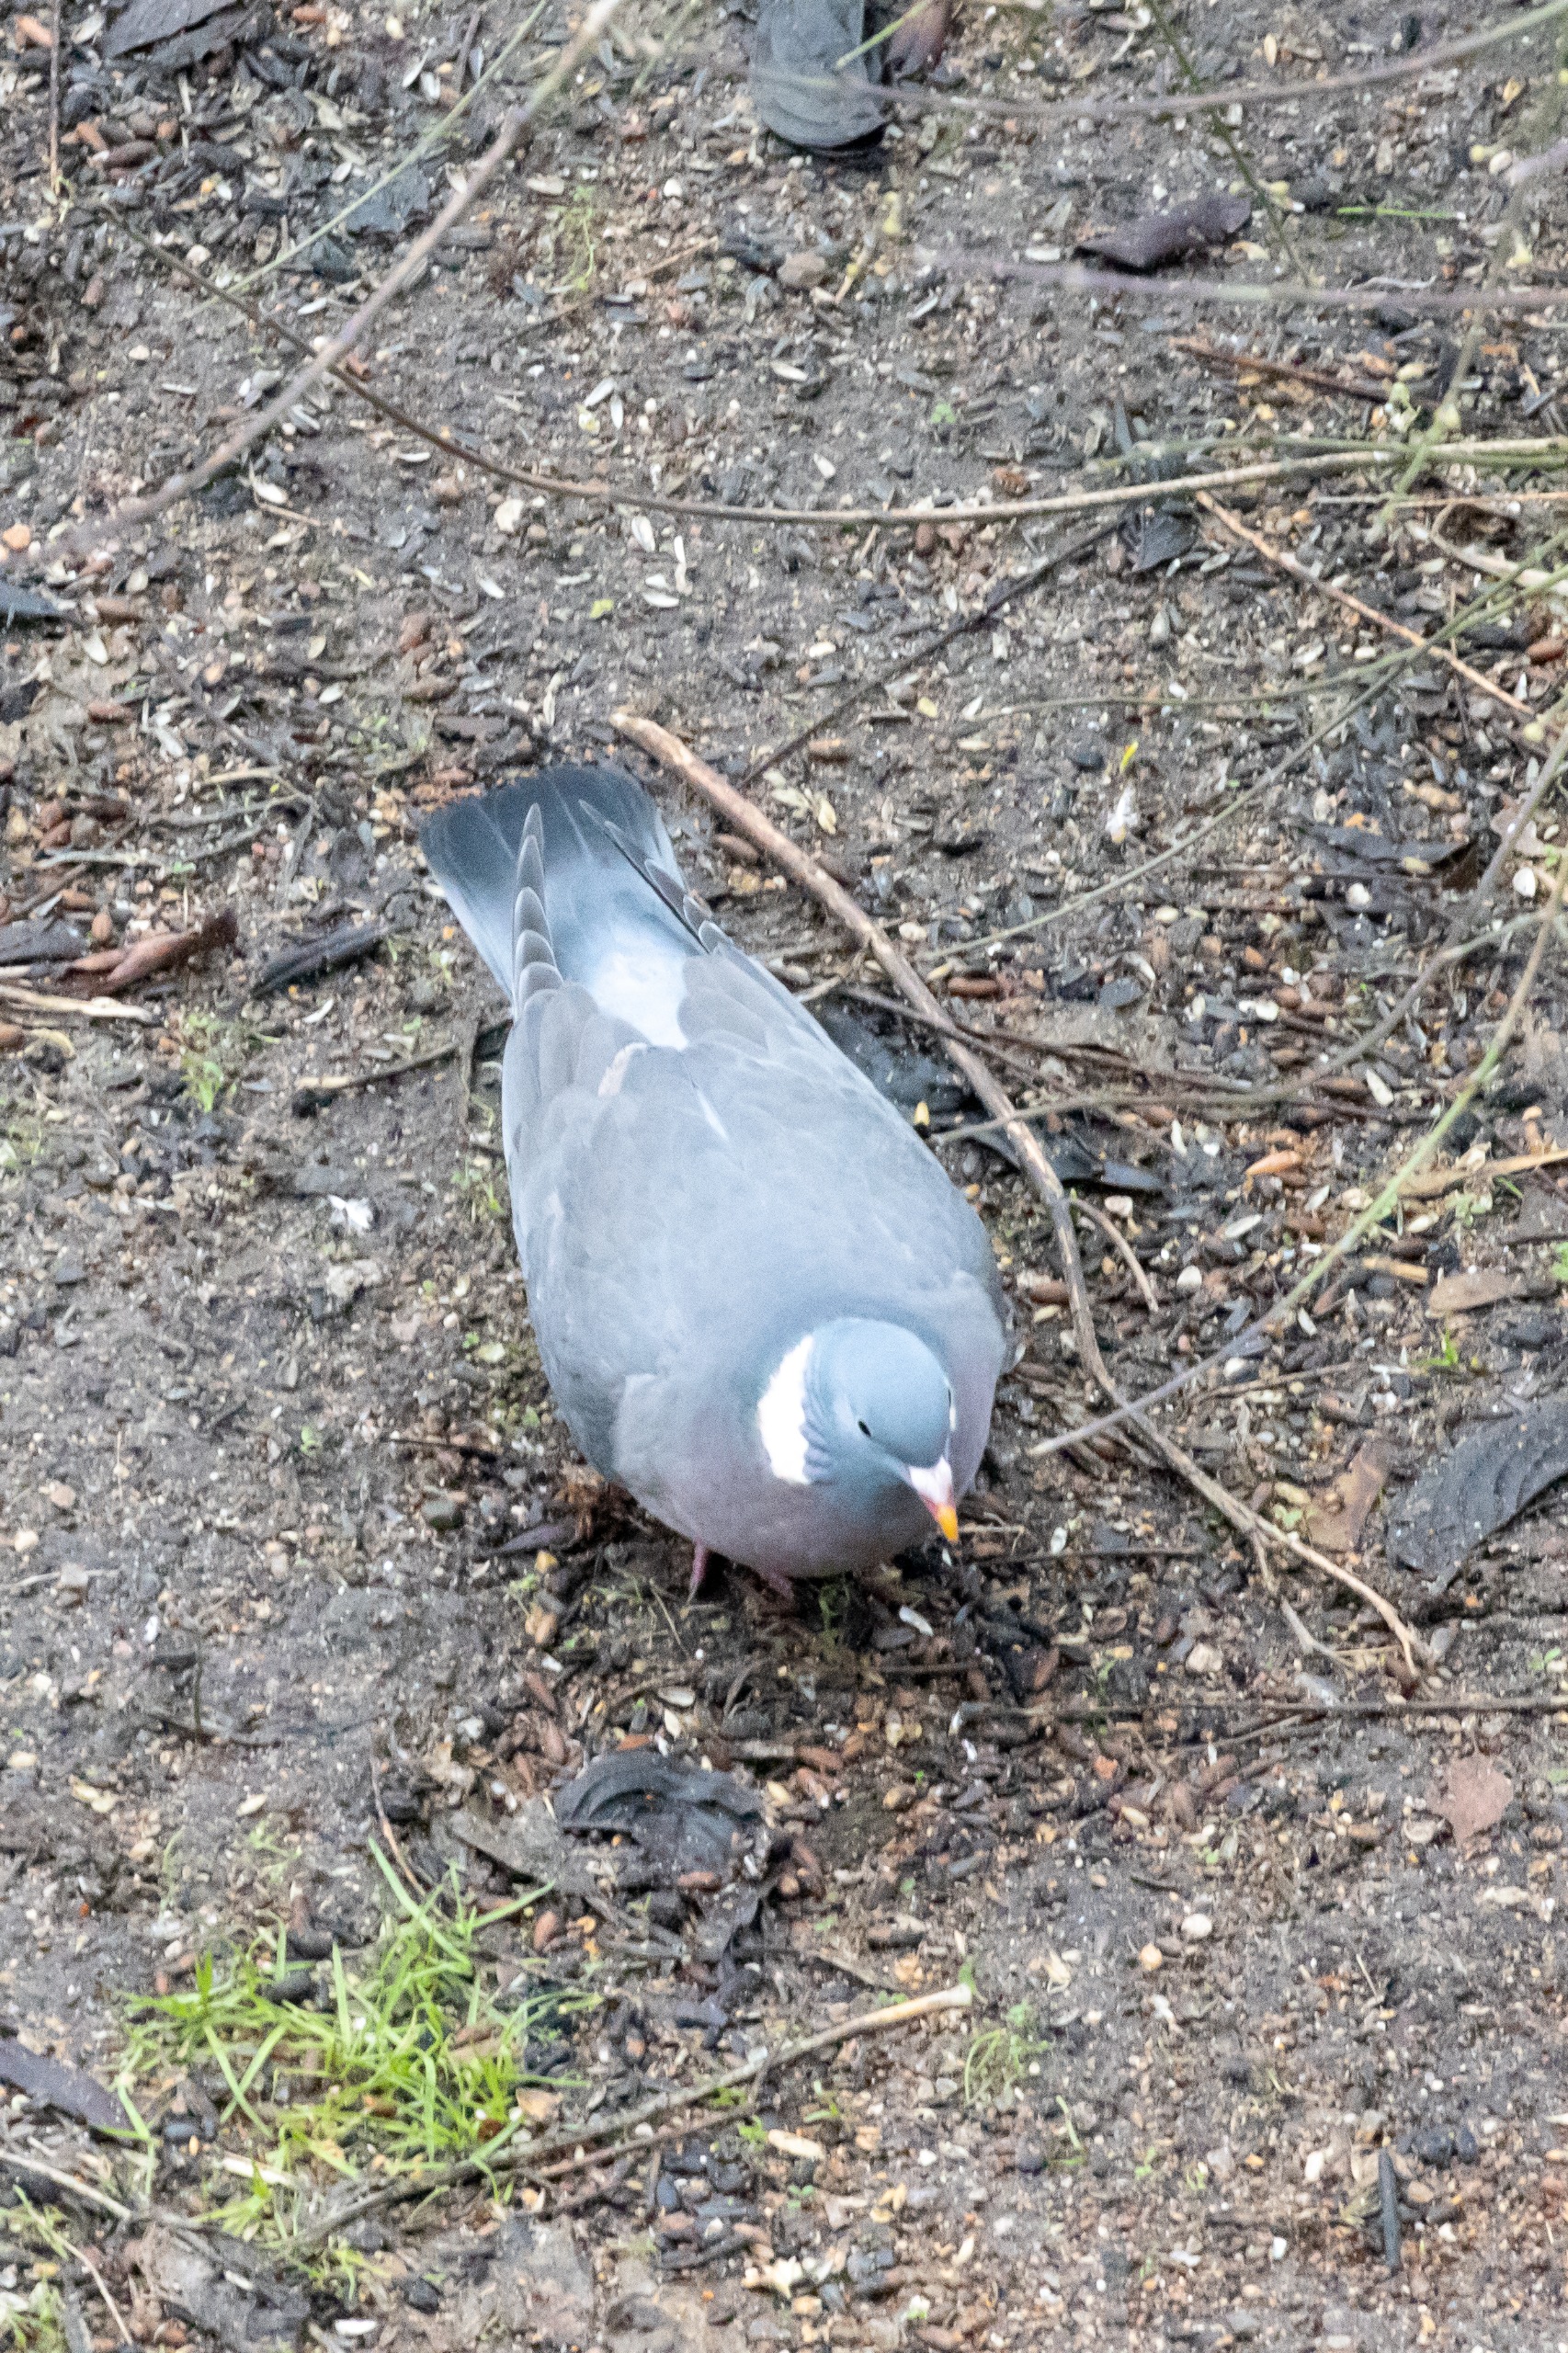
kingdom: Animalia
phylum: Chordata
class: Aves
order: Columbiformes
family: Columbidae
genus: Columba
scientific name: Columba palumbus
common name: Ringdue
